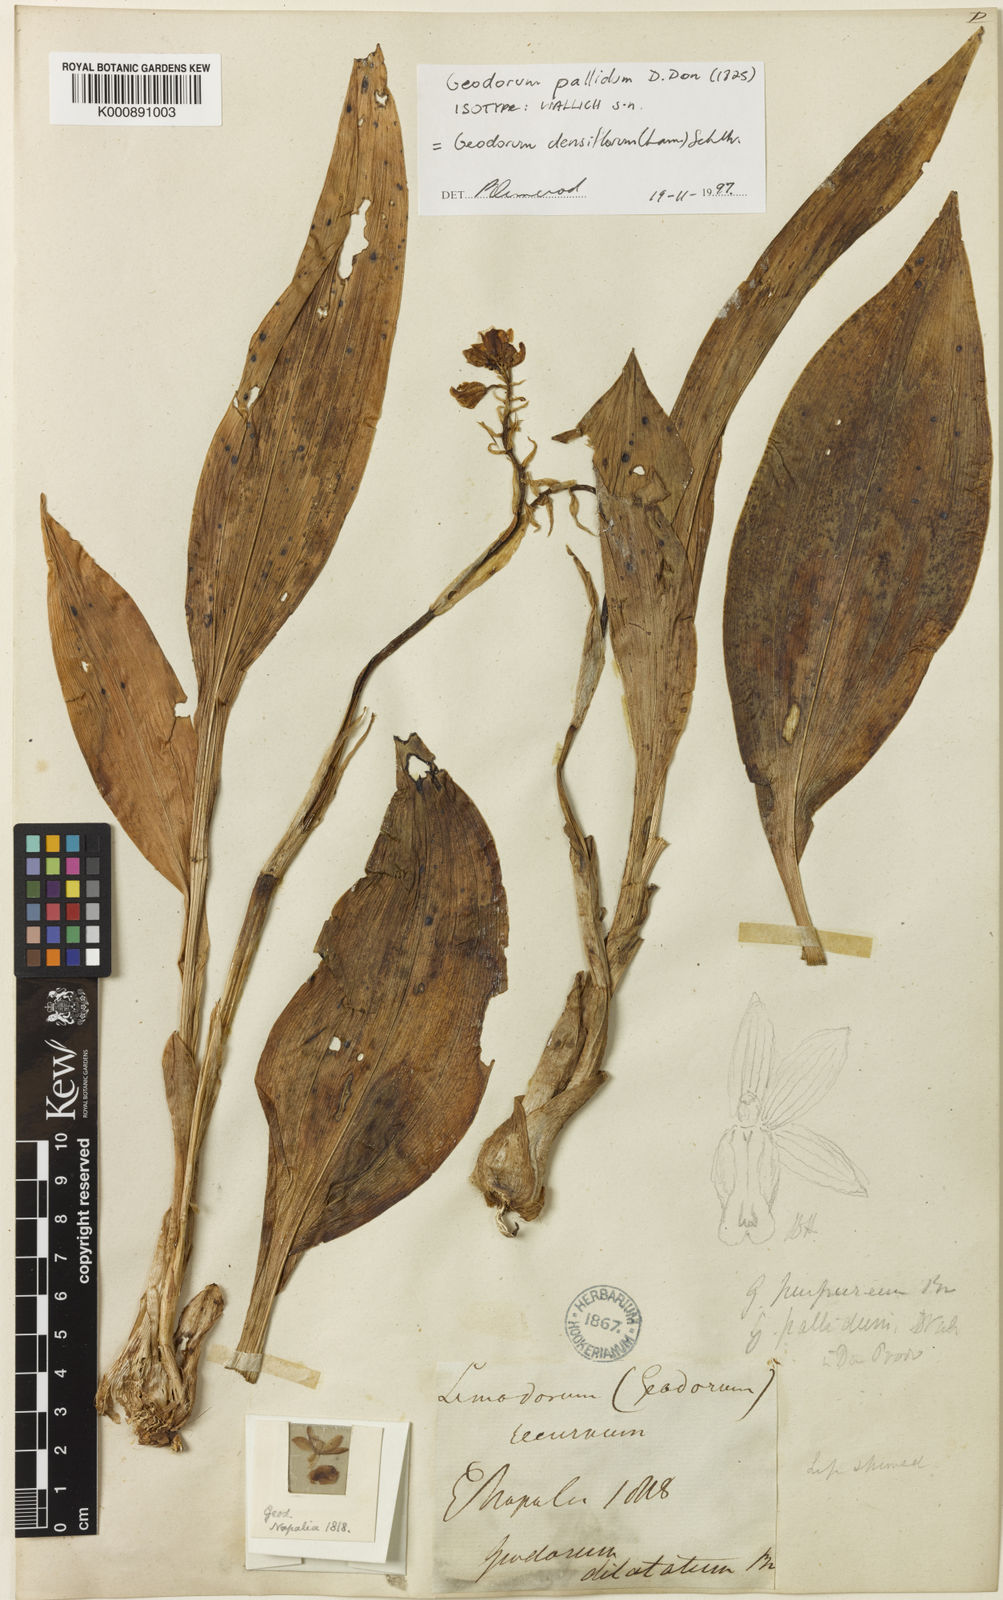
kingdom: Plantae
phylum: Tracheophyta
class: Liliopsida
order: Asparagales
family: Orchidaceae
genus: Eulophia
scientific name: Eulophia cernua
